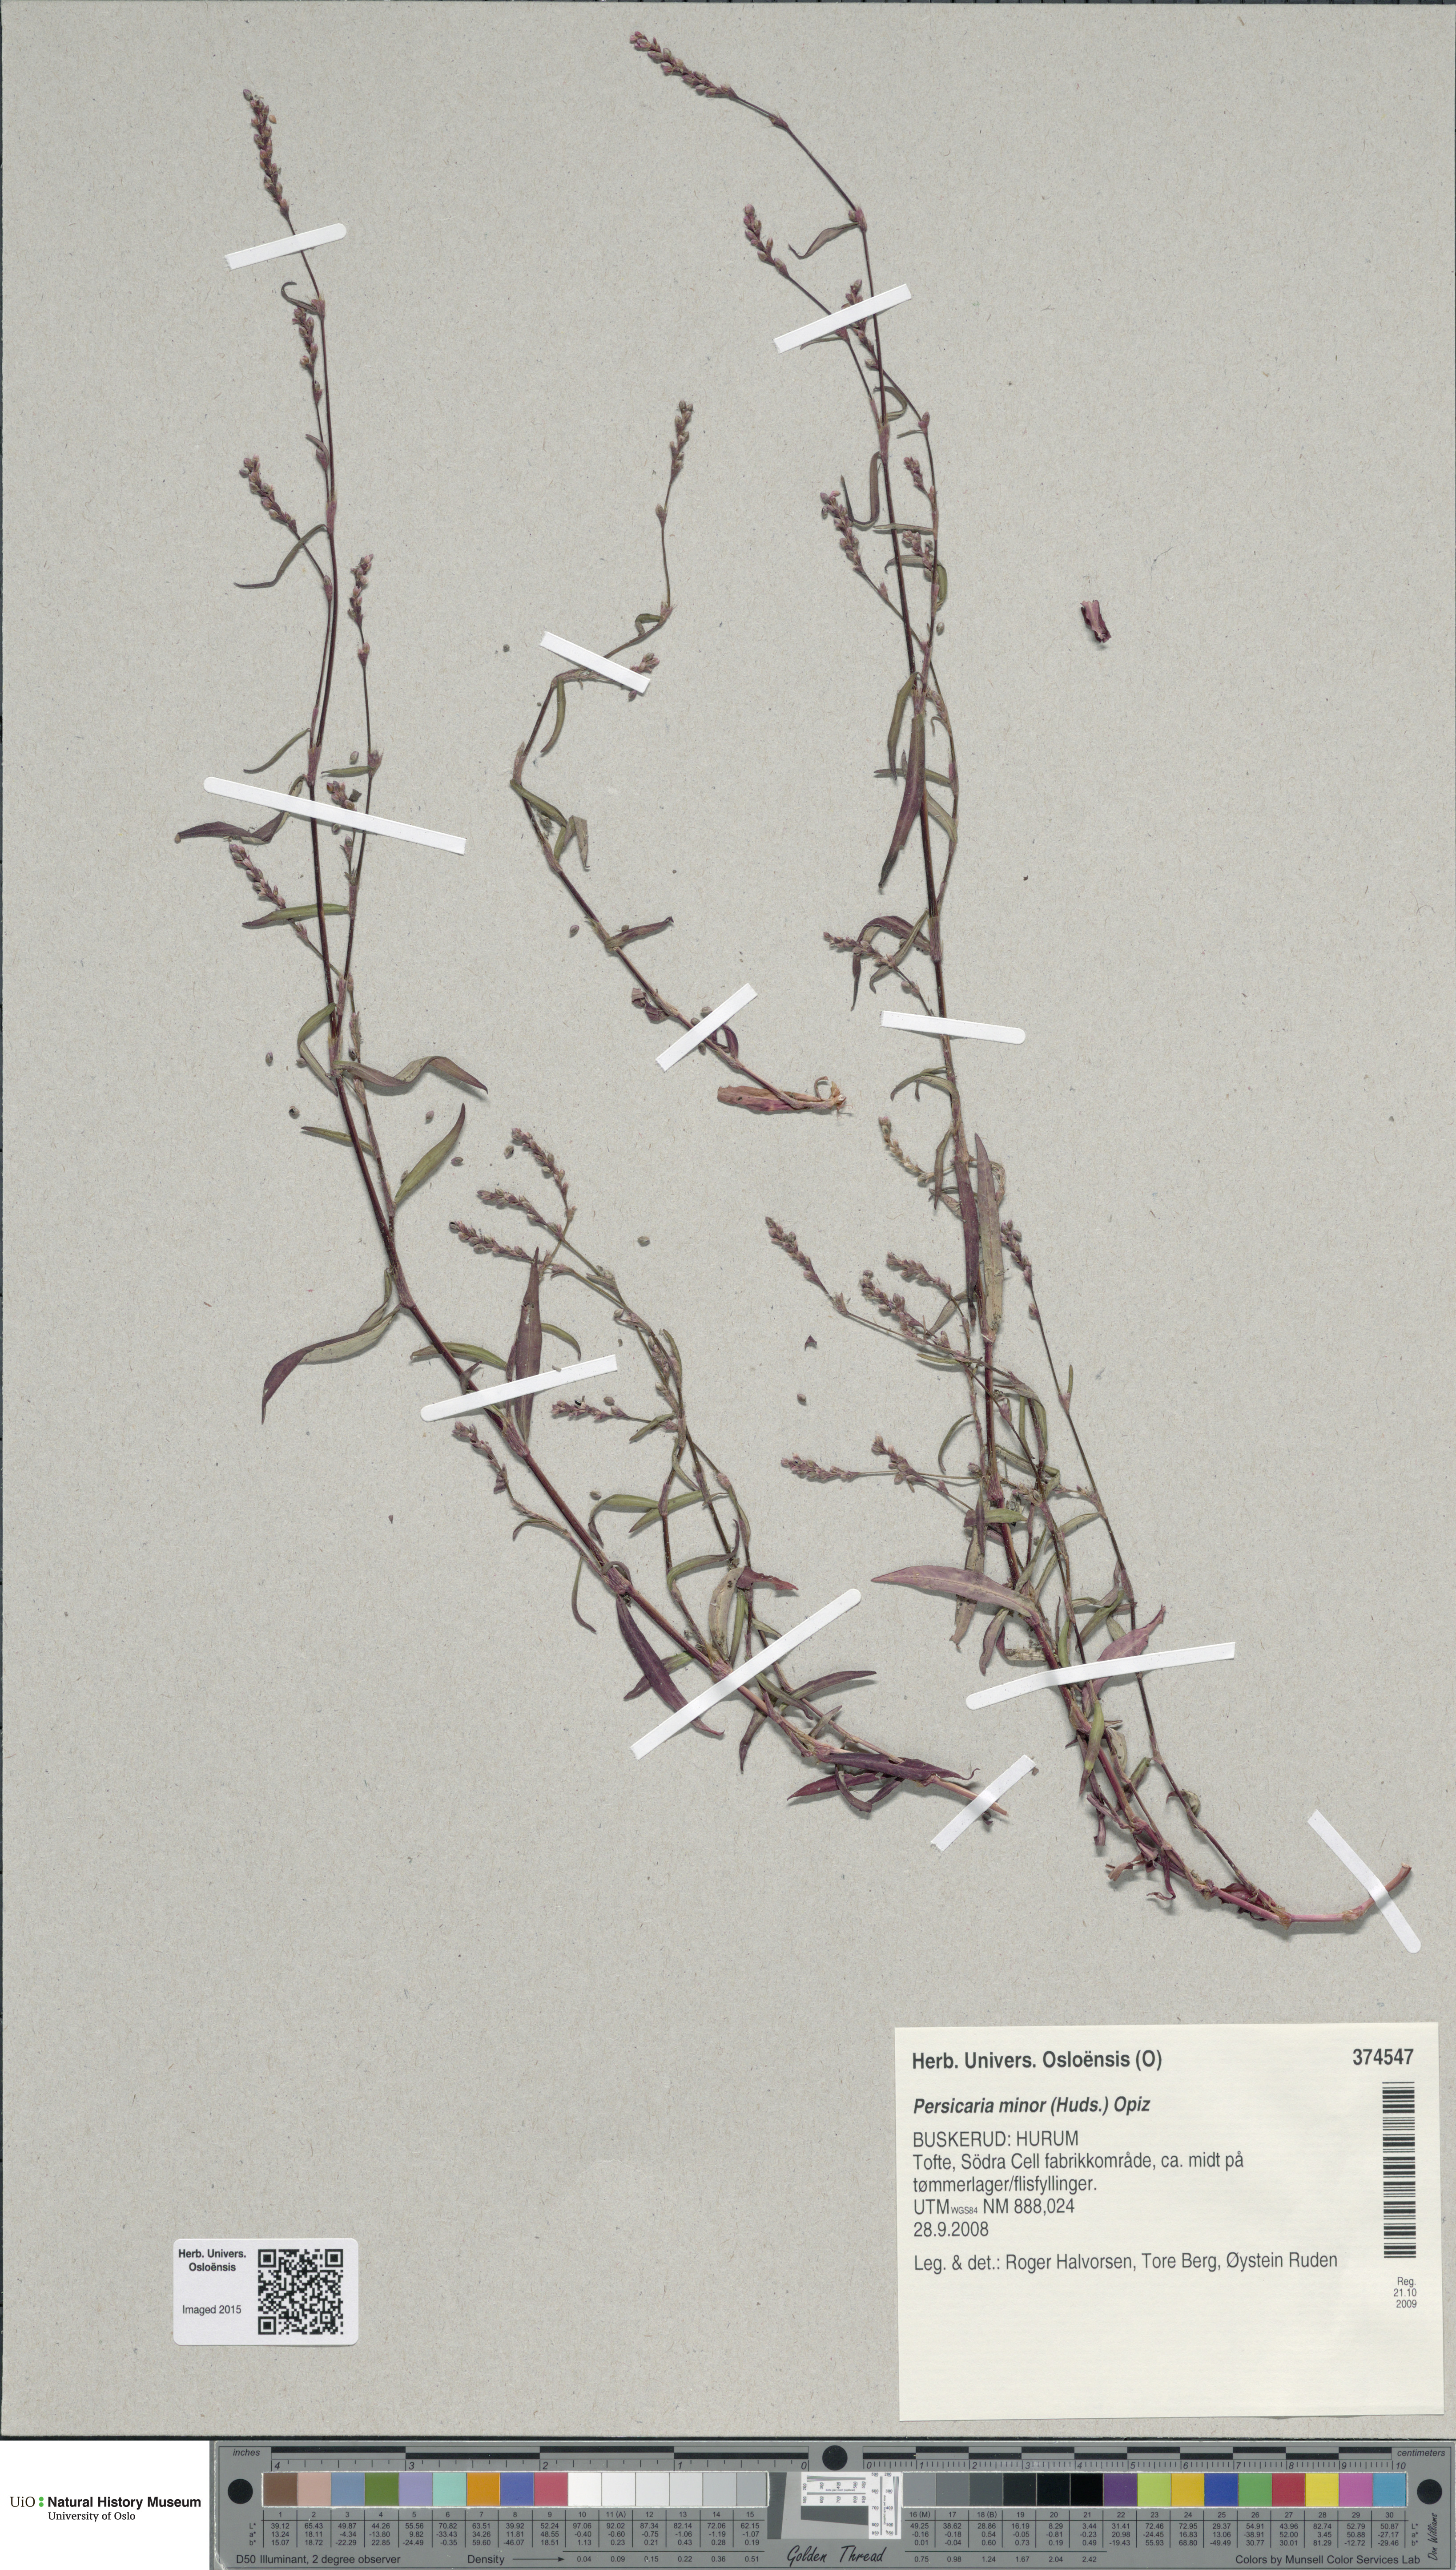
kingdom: Plantae
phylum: Tracheophyta
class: Magnoliopsida
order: Caryophyllales
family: Polygonaceae
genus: Persicaria
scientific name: Persicaria minor
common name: Small water-pepper
